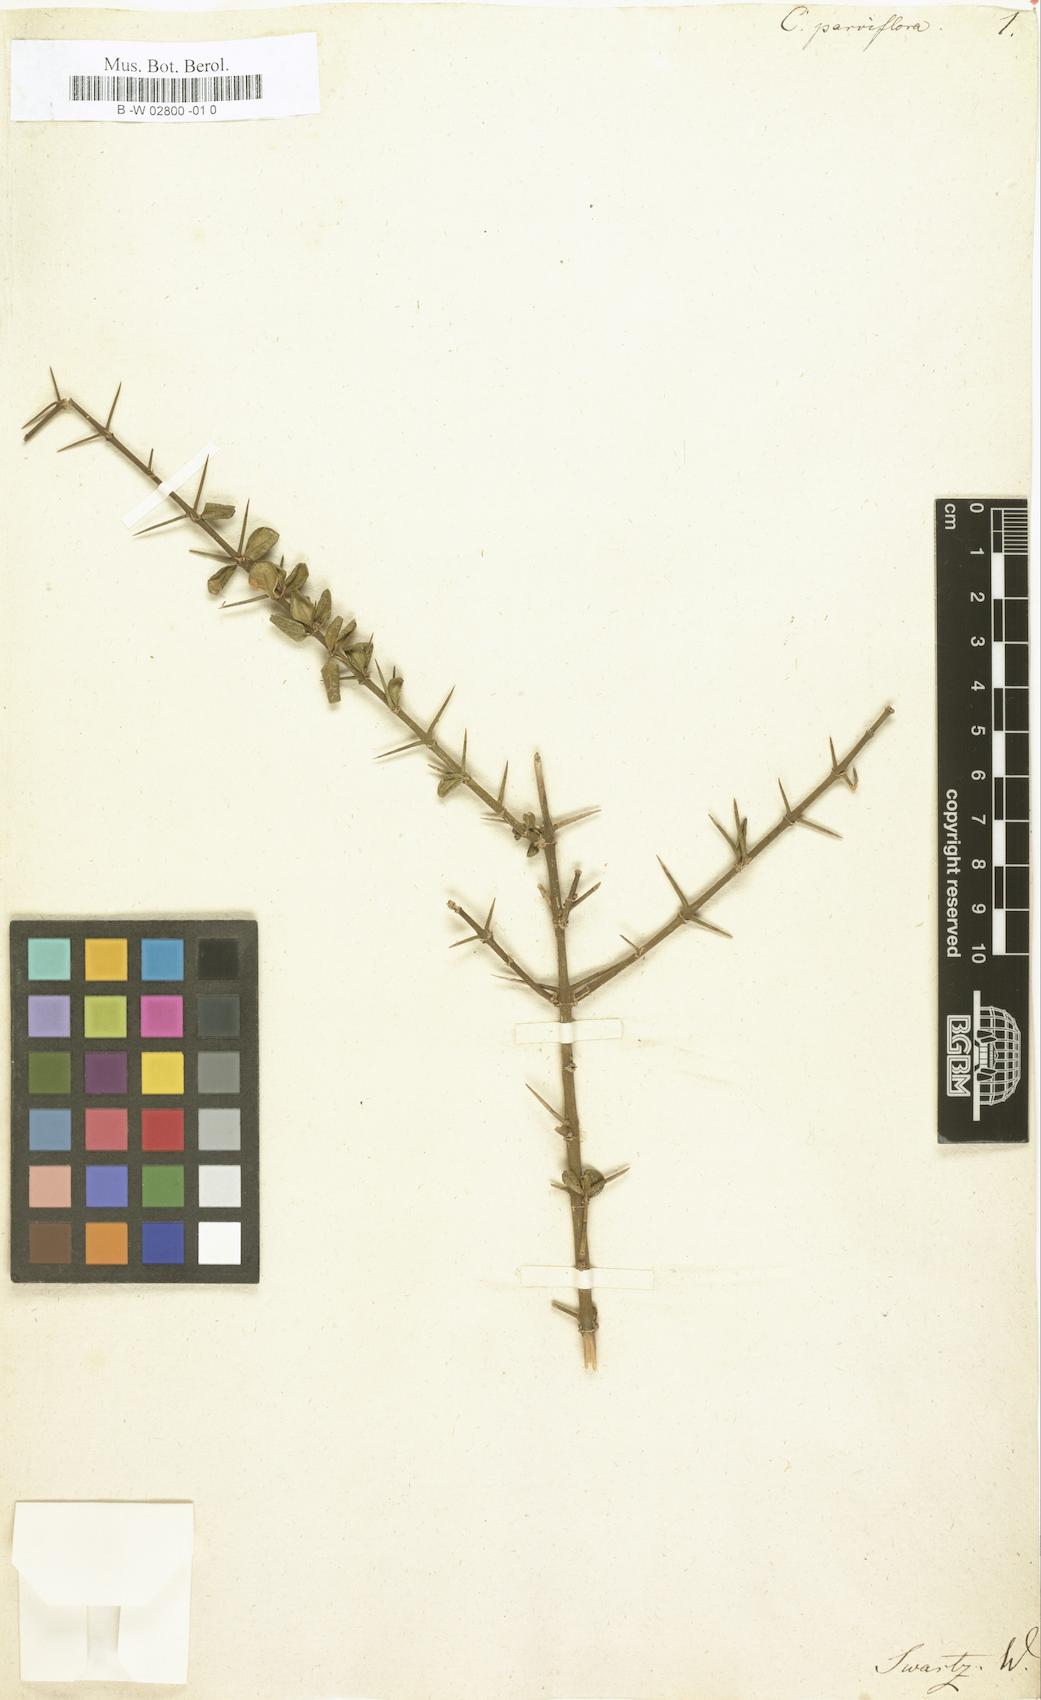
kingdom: Plantae
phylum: Tracheophyta
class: Magnoliopsida
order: Gentianales
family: Rubiaceae
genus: Catesbaea
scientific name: Catesbaea parviflora
